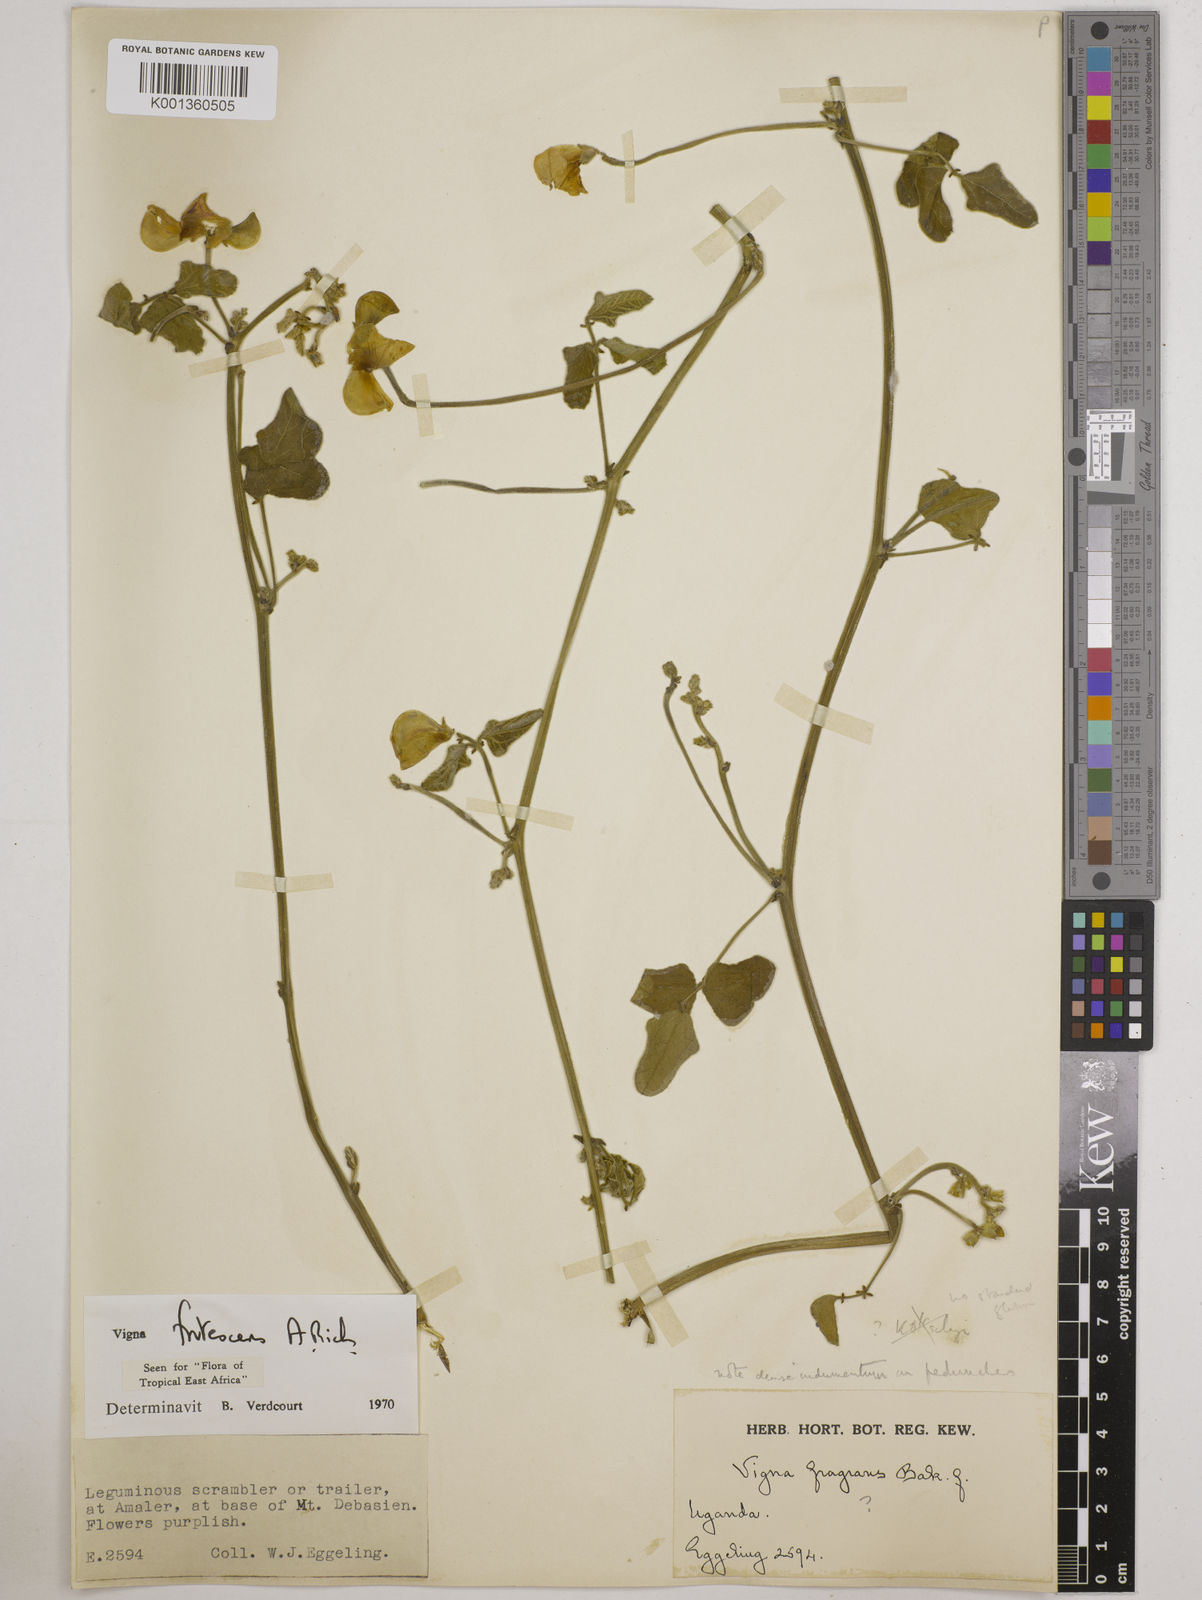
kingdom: Plantae
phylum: Tracheophyta
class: Magnoliopsida
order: Fabales
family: Fabaceae
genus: Vigna
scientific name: Vigna frutescens
